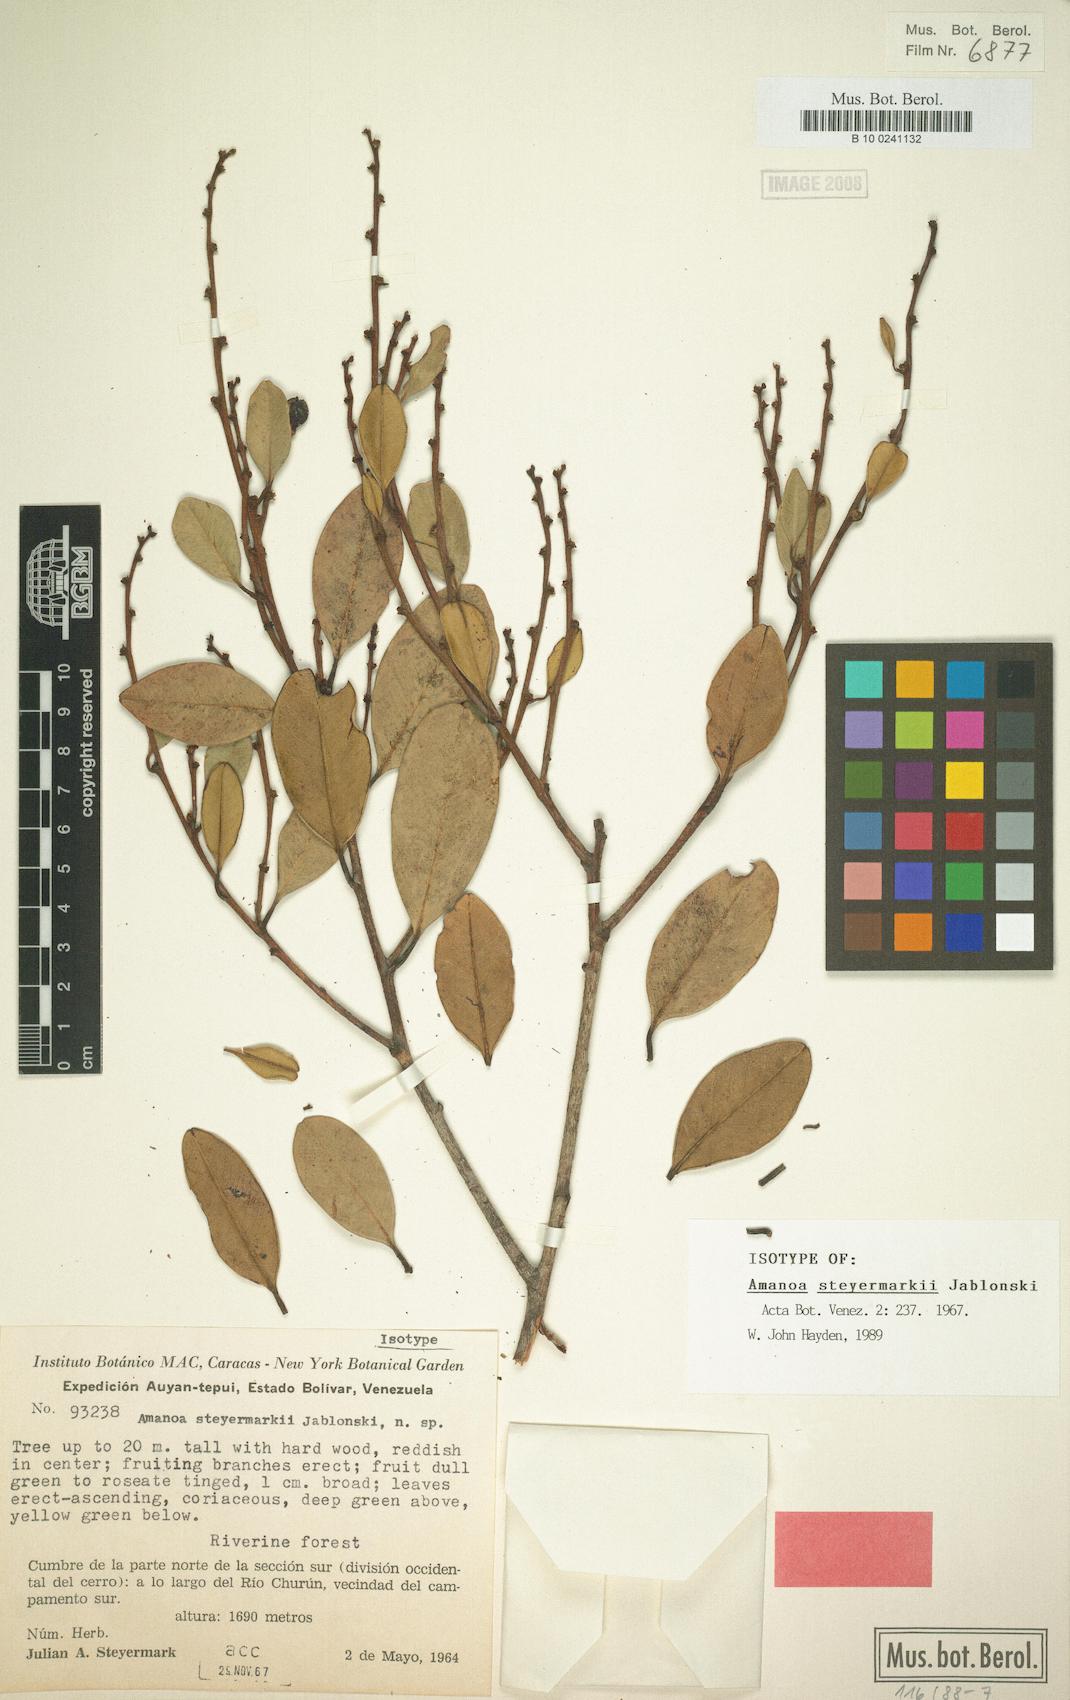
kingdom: Plantae
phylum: Tracheophyta
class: Magnoliopsida
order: Malpighiales
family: Phyllanthaceae
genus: Amanoa
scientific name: Amanoa steyermarkii
